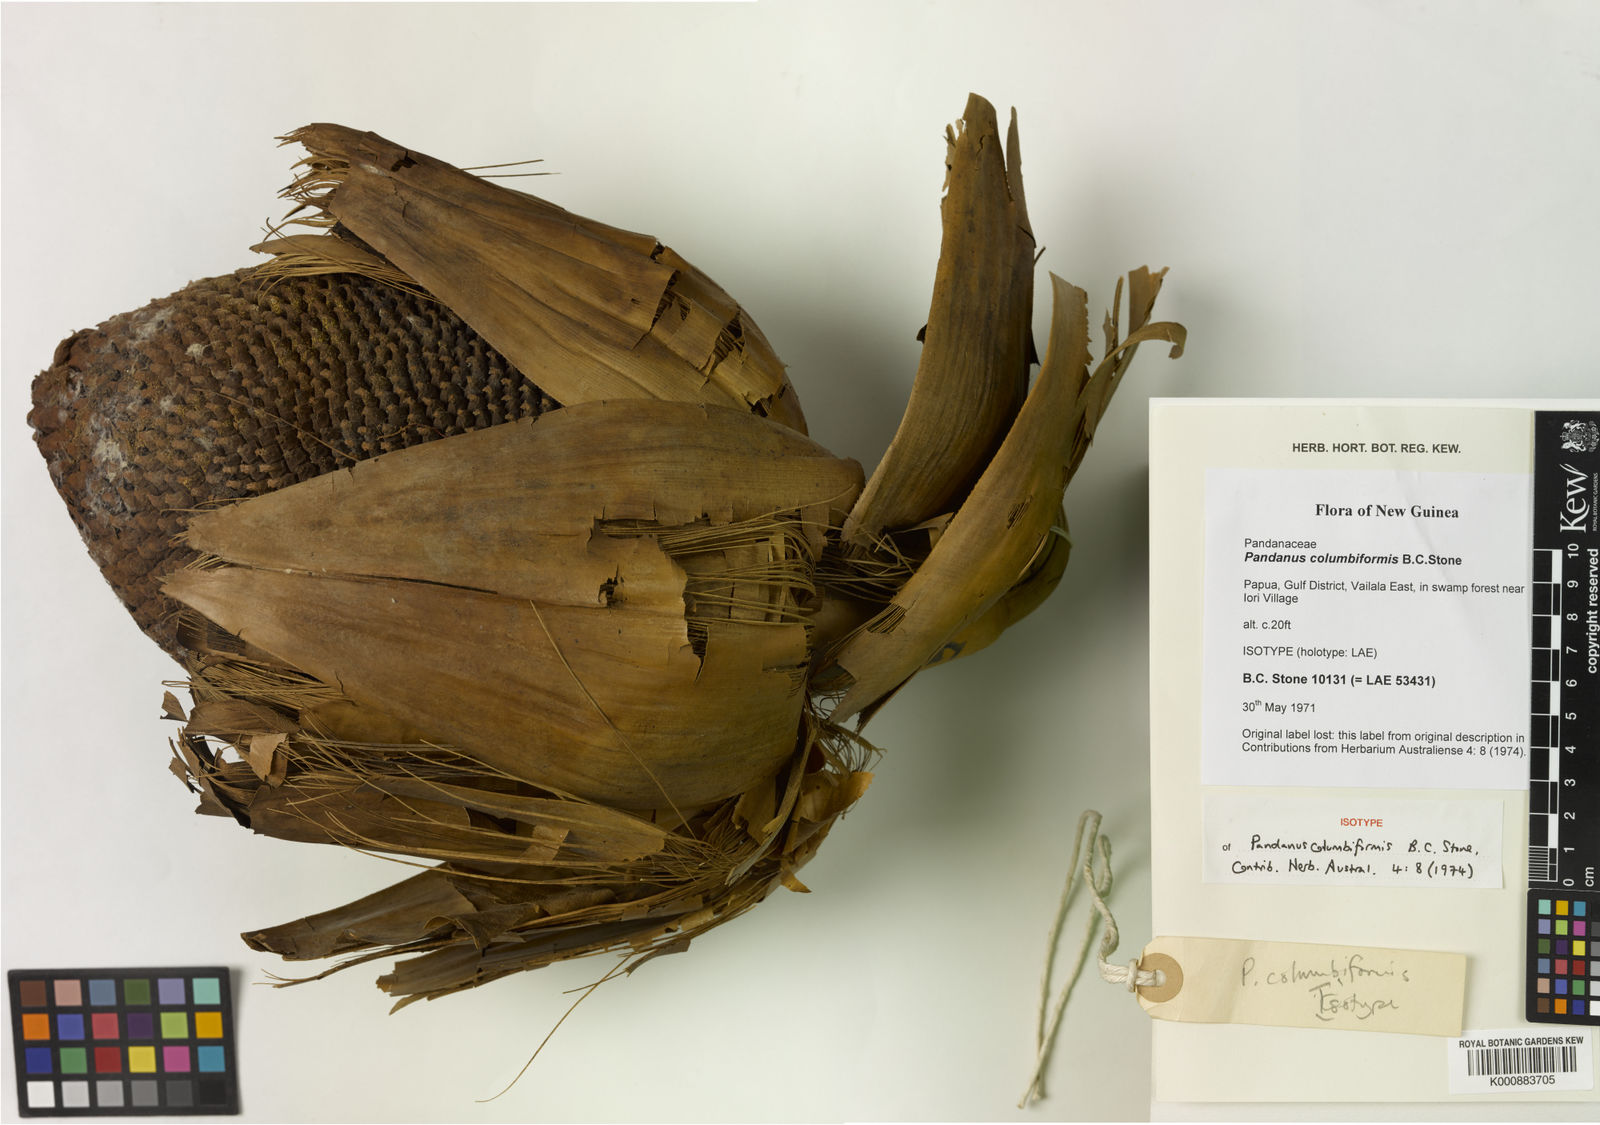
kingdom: Plantae
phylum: Tracheophyta
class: Liliopsida
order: Pandanales
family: Pandanaceae
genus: Pandanus
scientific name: Pandanus atropurpureus
